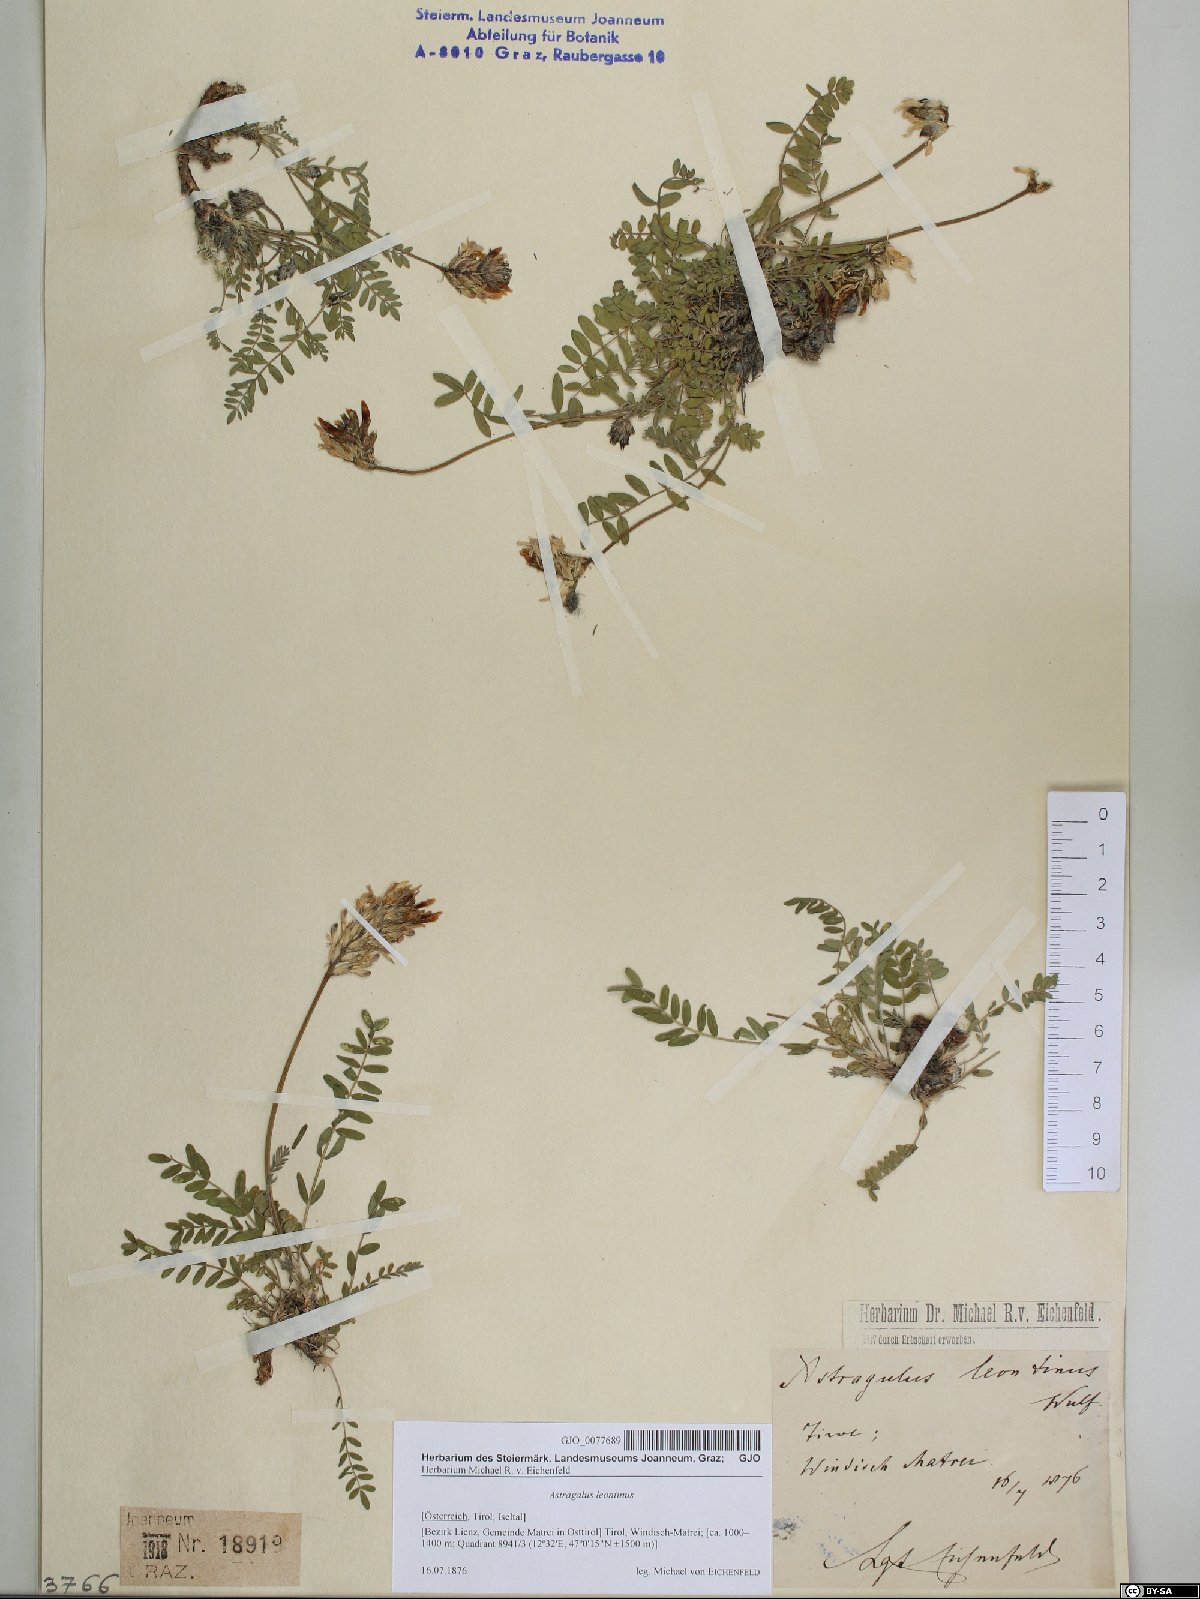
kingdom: Plantae
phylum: Tracheophyta
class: Magnoliopsida
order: Fabales
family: Fabaceae
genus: Astragalus
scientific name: Astragalus leontinus
